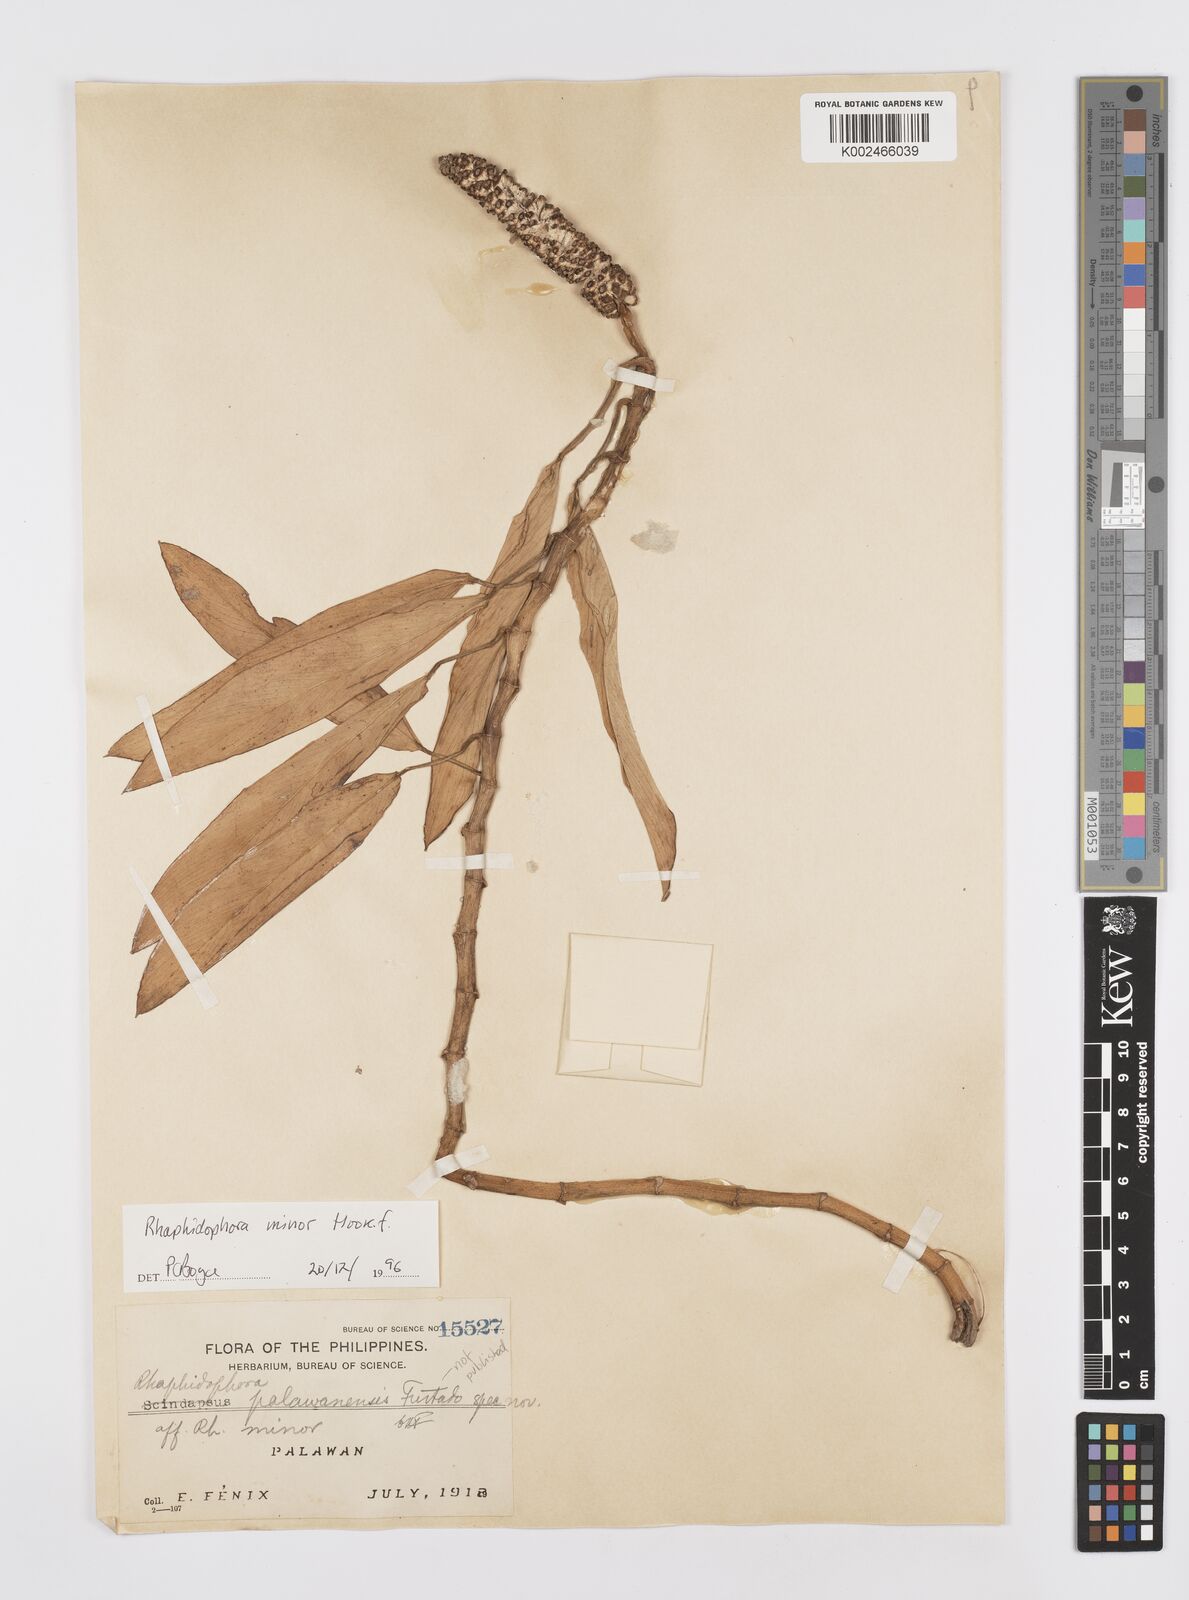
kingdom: Plantae
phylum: Tracheophyta
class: Liliopsida
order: Alismatales
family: Araceae
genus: Rhaphidophora
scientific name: Rhaphidophora minor
